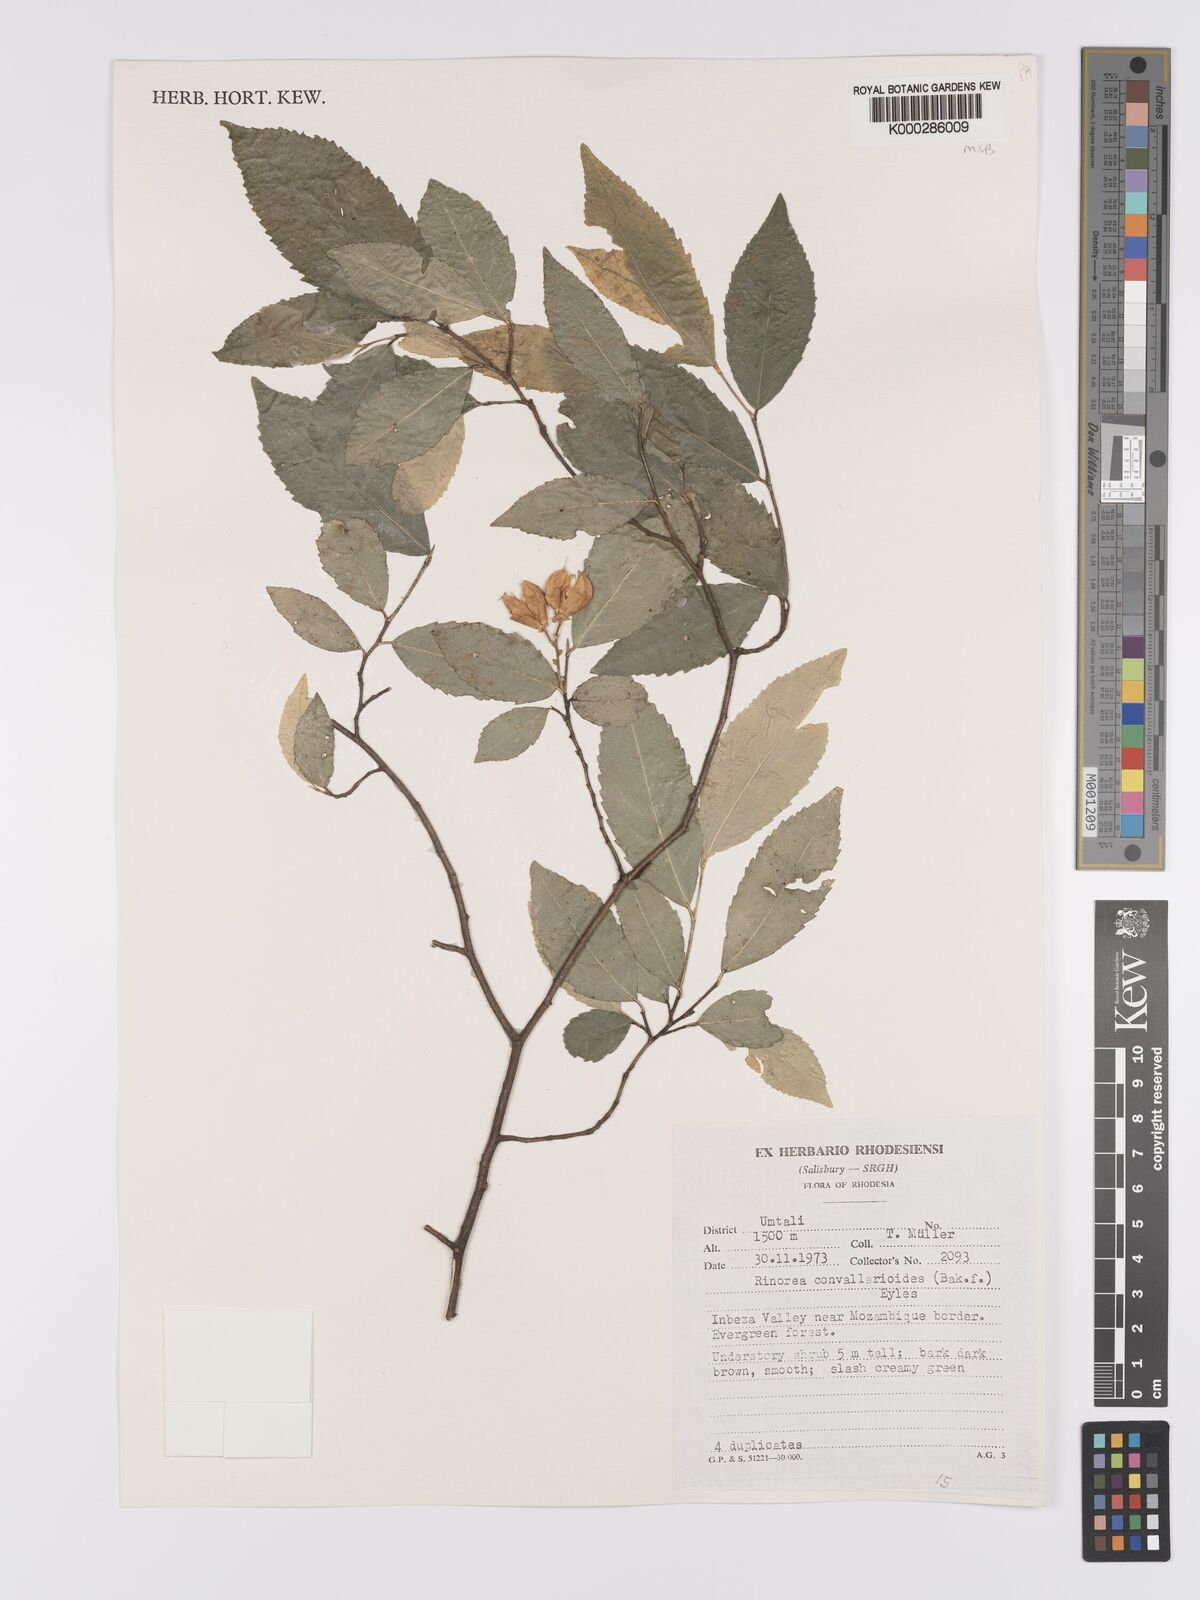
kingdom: Plantae
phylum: Tracheophyta
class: Magnoliopsida
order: Malpighiales
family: Violaceae
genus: Rinorea
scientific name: Rinorea convallarioides
